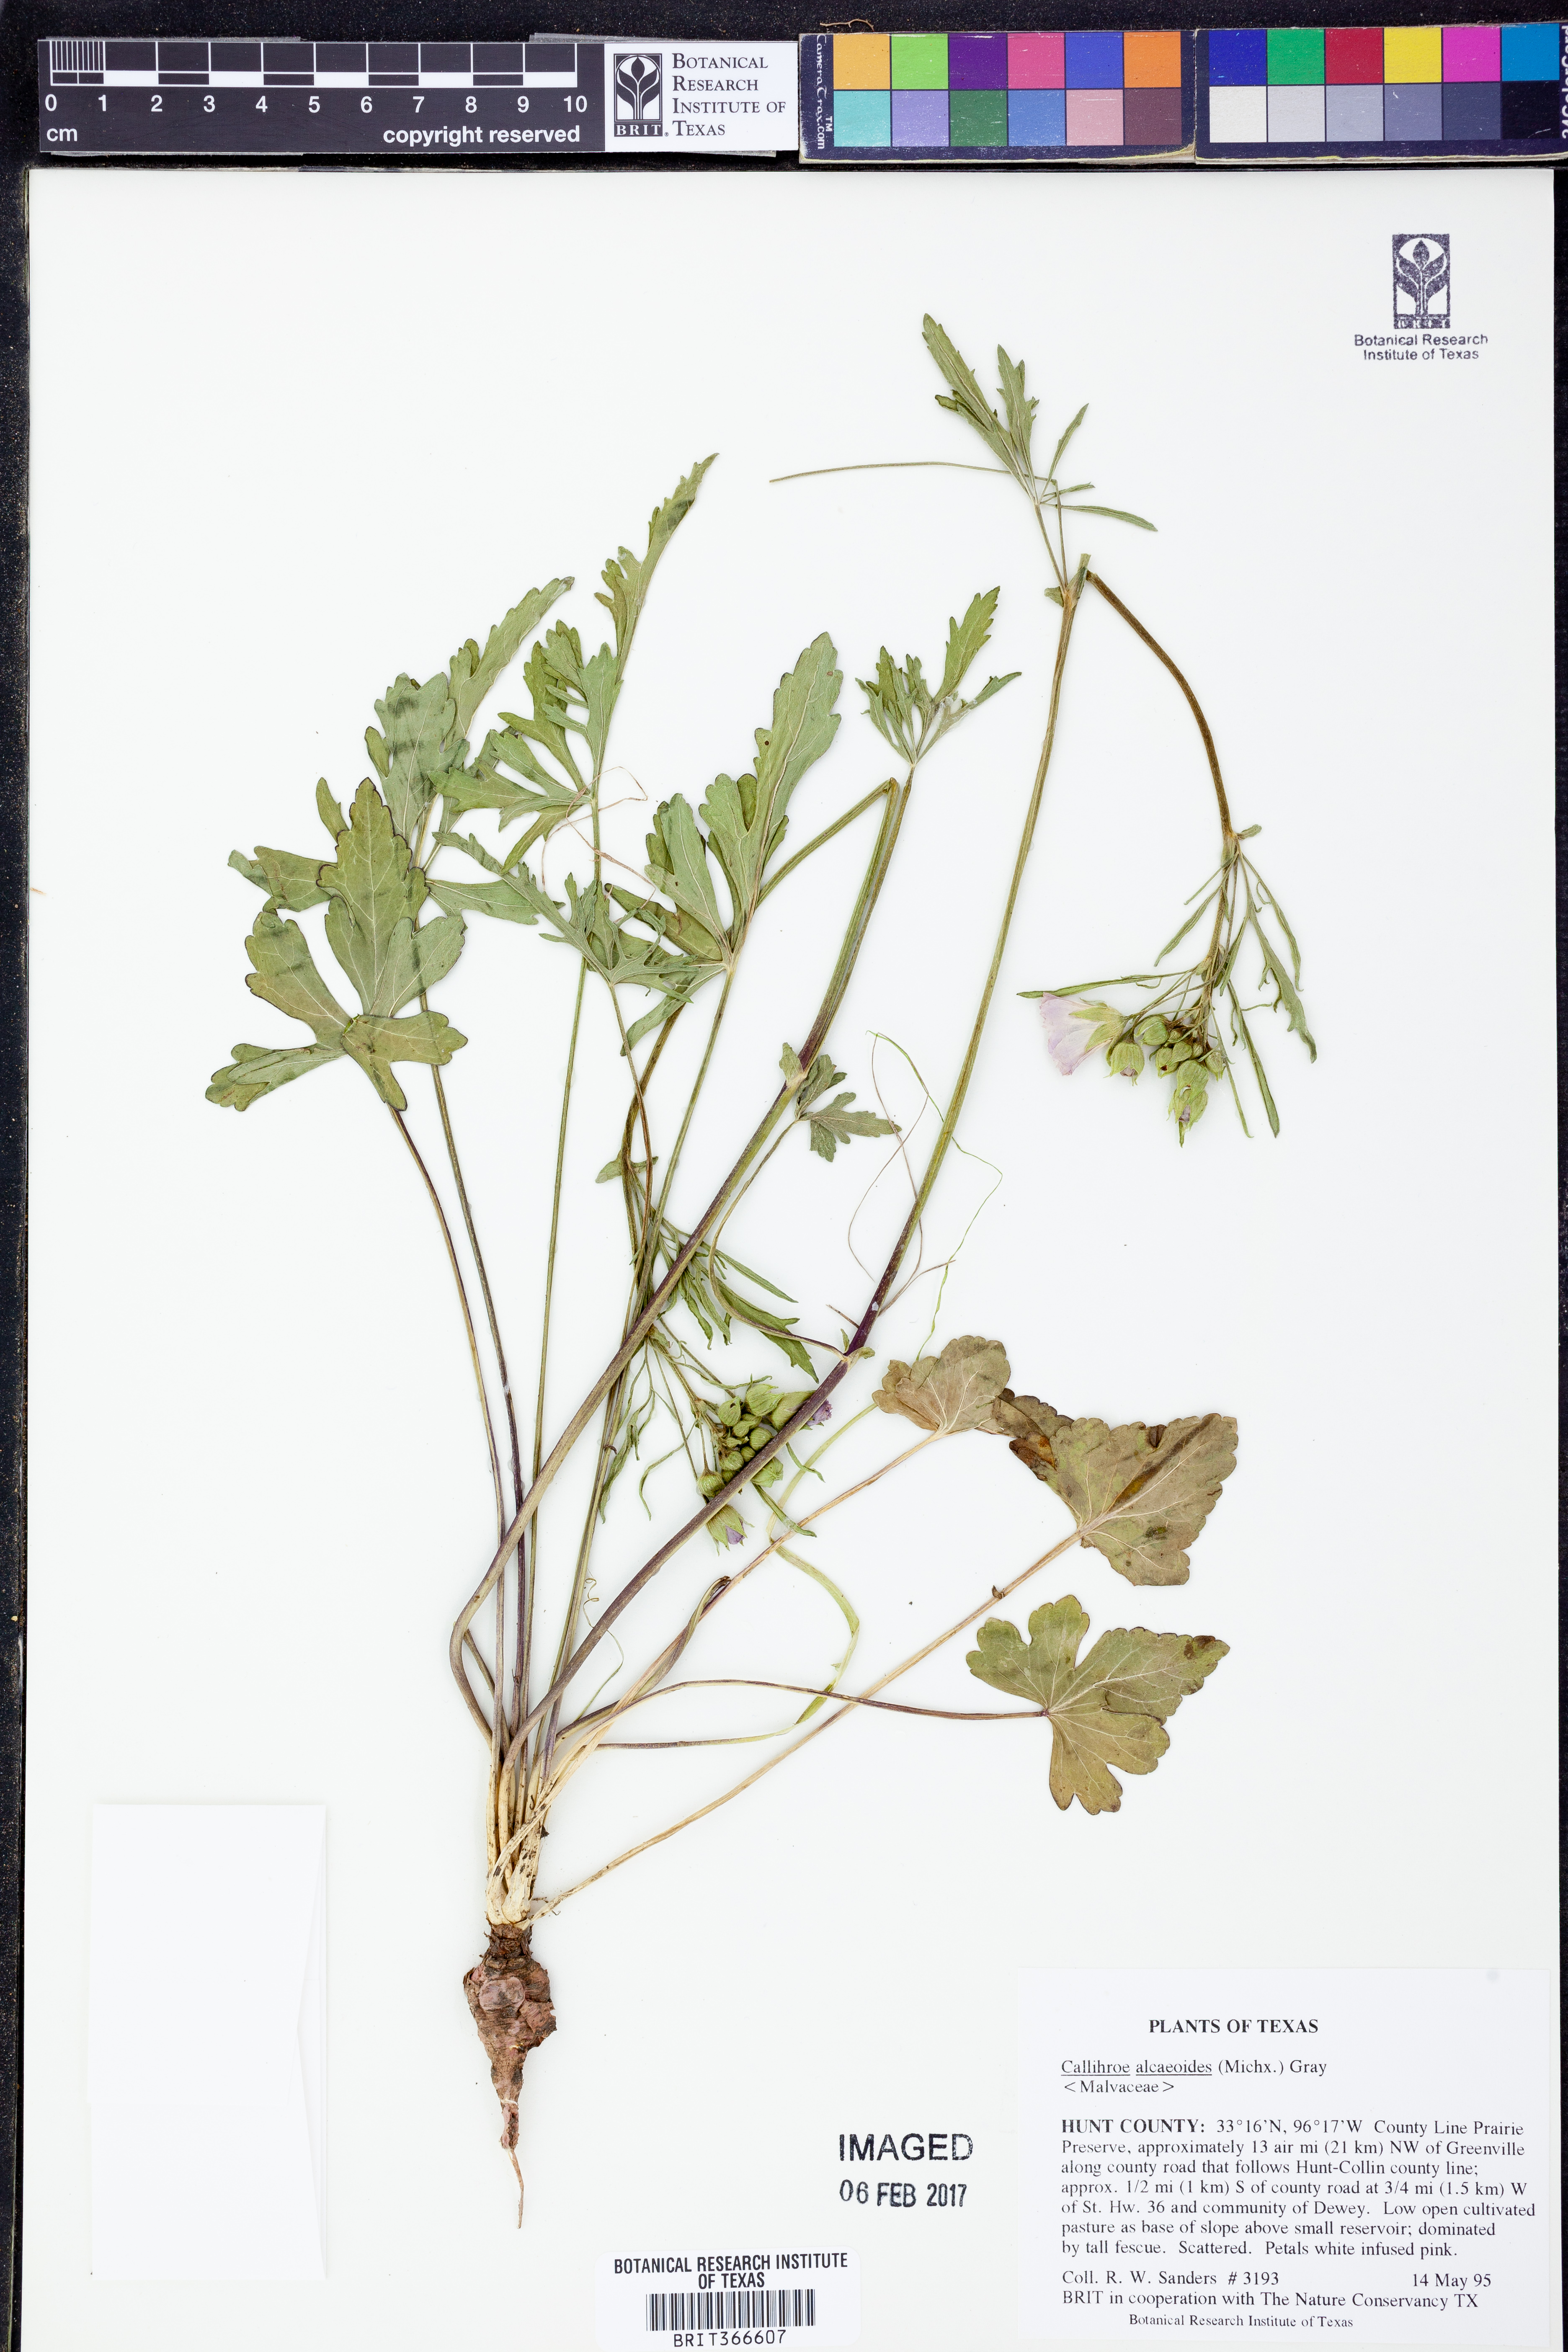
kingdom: Plantae
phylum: Tracheophyta
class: Magnoliopsida
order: Malvales
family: Malvaceae
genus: Callirhoe
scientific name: Callirhoe alcaeoides
